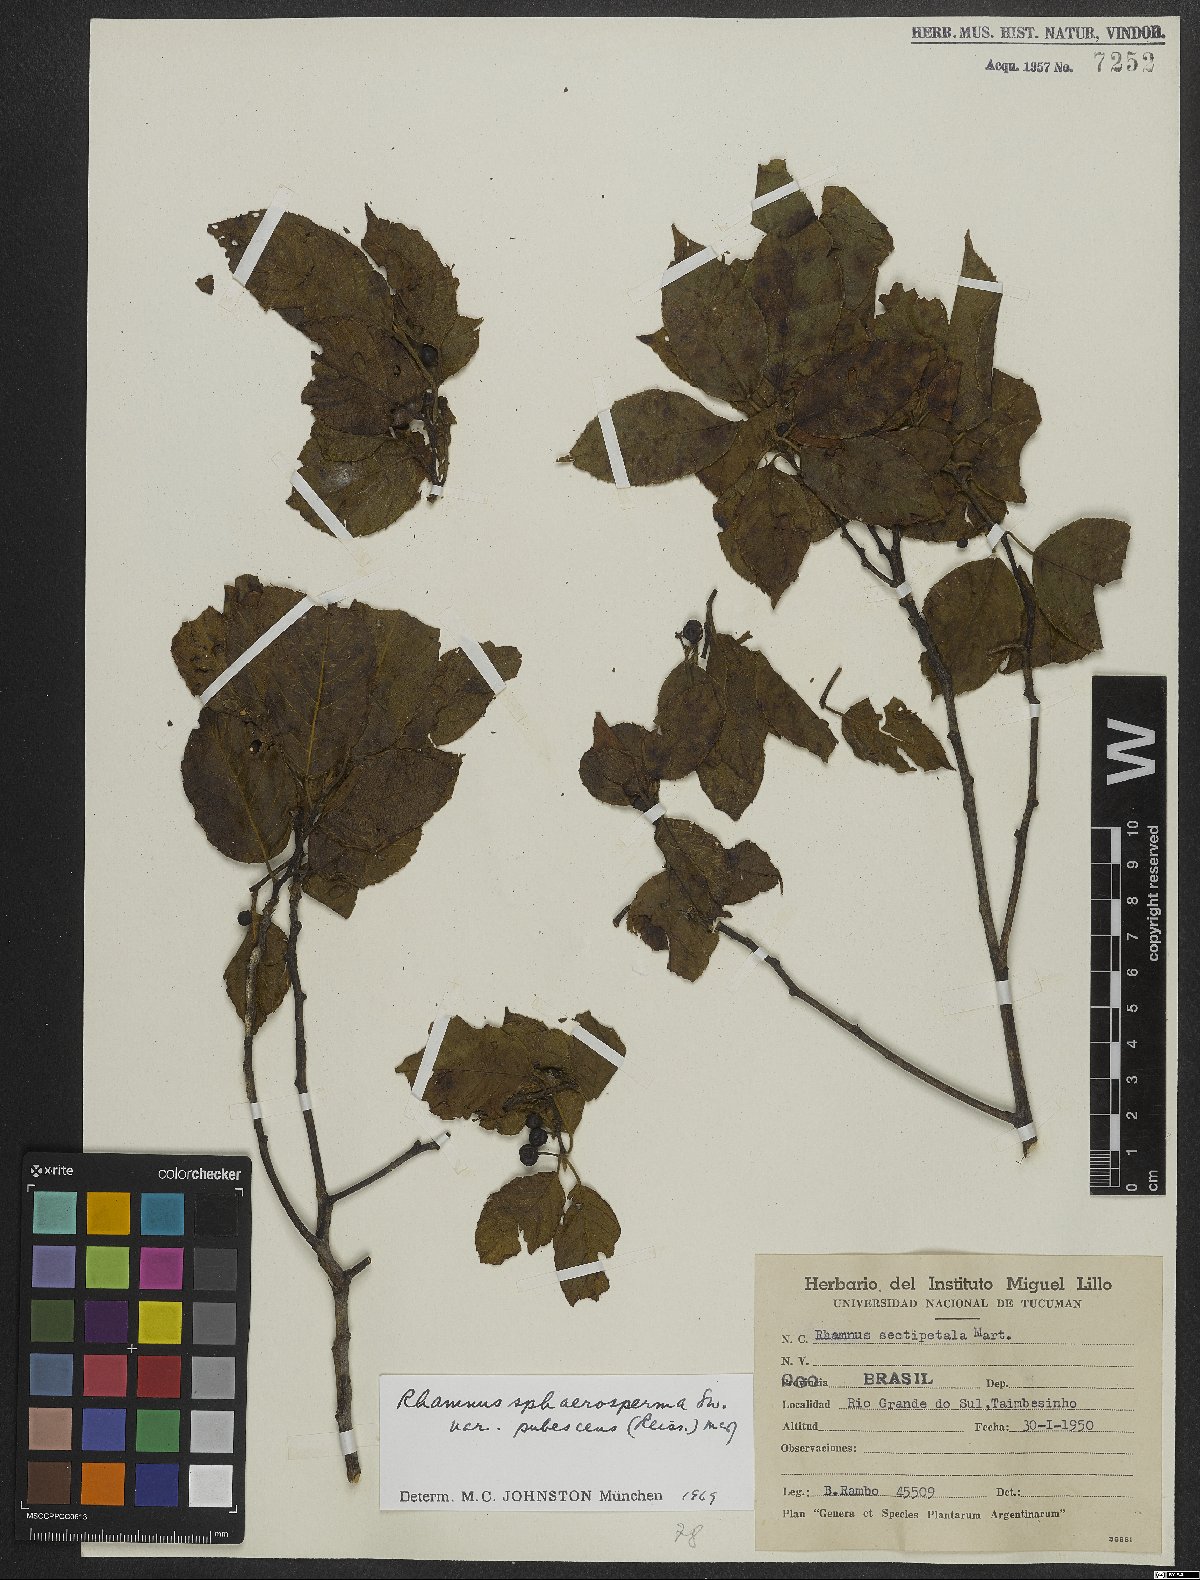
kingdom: Plantae
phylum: Tracheophyta
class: Magnoliopsida
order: Rosales
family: Rhamnaceae
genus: Frangula
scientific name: Frangula sphaerosperma
